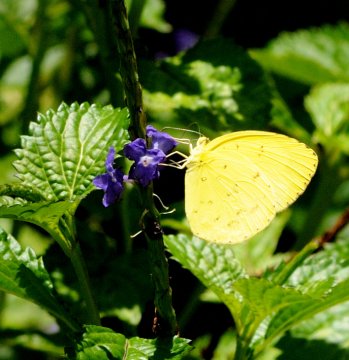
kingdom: Animalia
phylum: Arthropoda
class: Insecta
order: Lepidoptera
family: Pieridae
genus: Eurema
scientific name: Eurema hecabe
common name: Common Grass Yellow
